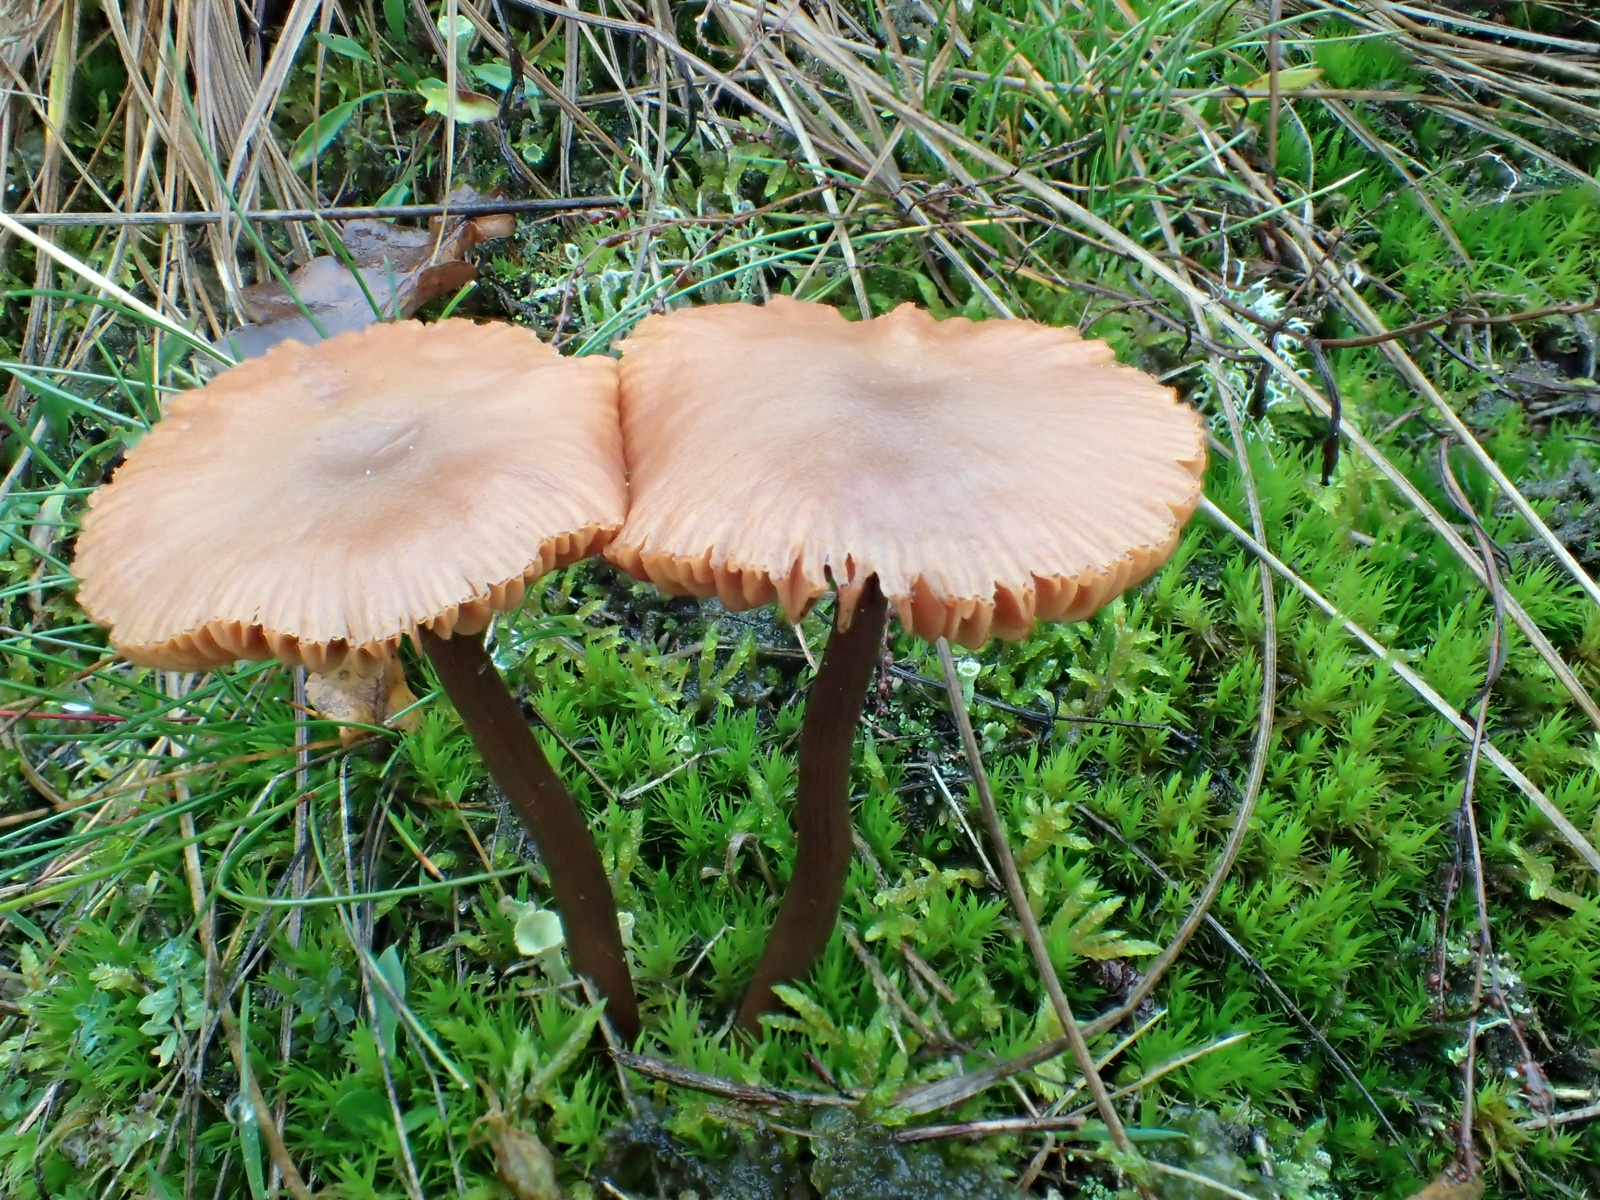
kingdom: Fungi
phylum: Basidiomycota
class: Agaricomycetes
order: Agaricales
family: Hydnangiaceae
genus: Laccaria
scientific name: Laccaria
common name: ametysthat
